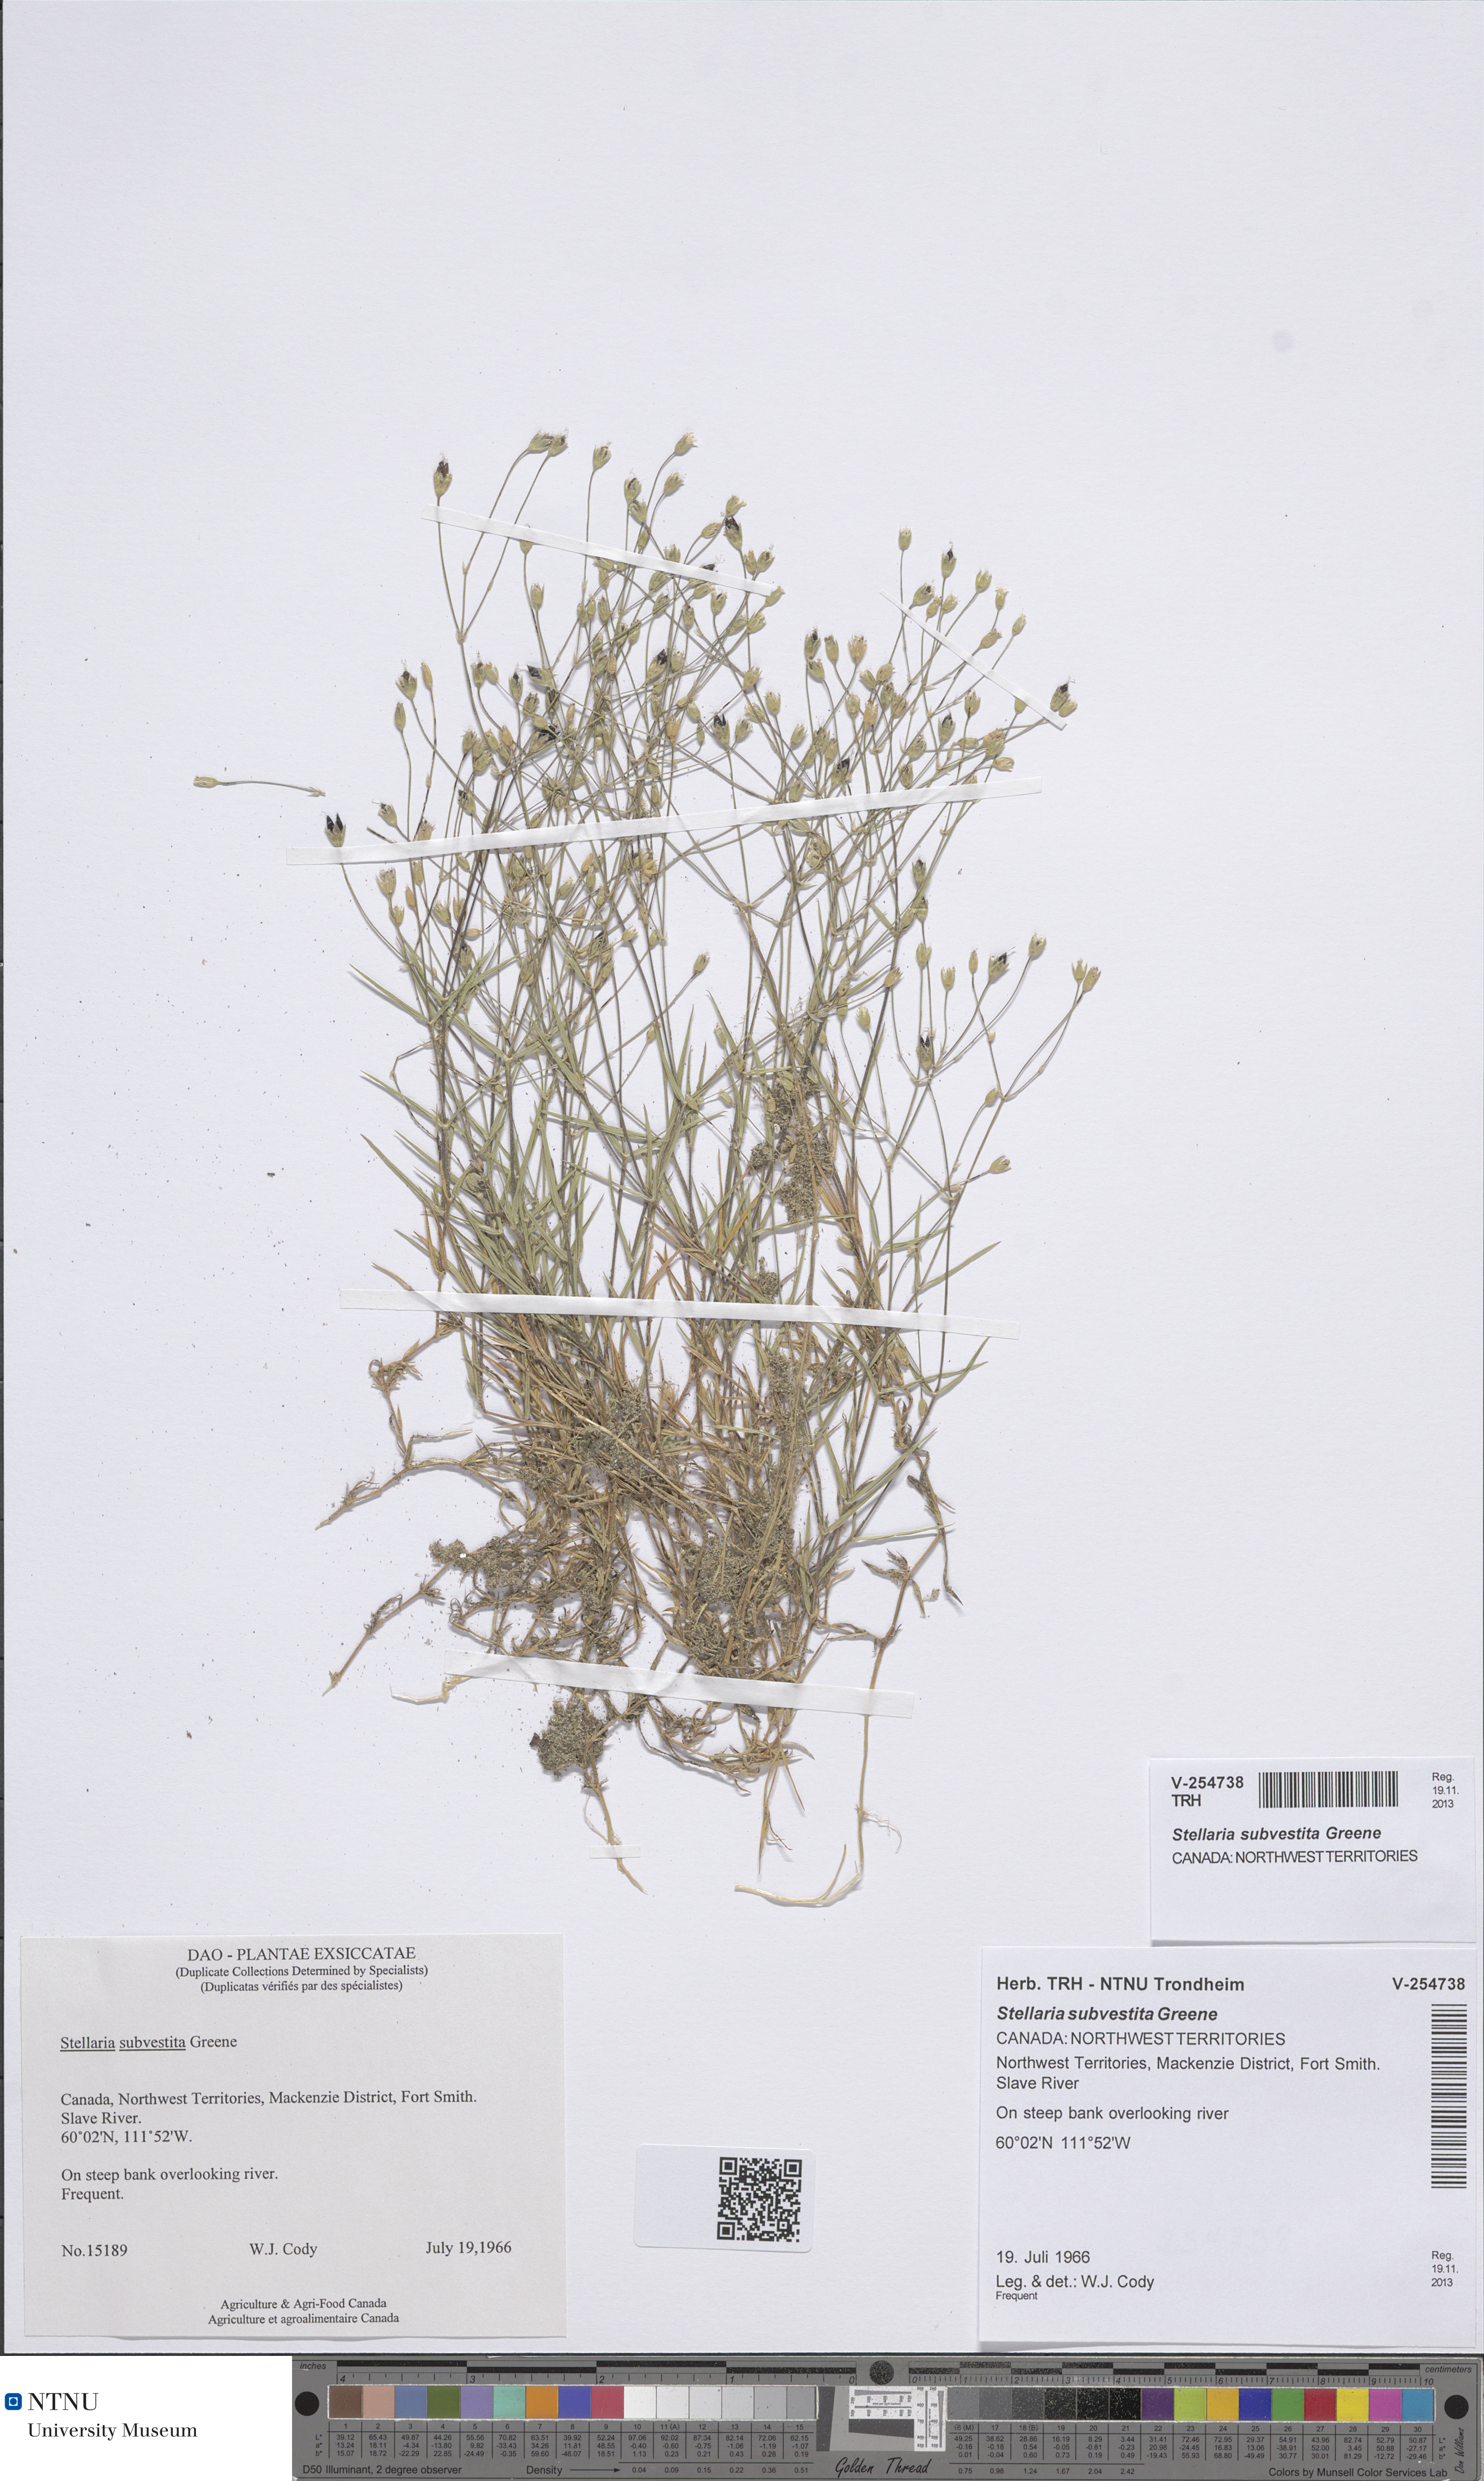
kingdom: Plantae
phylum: Tracheophyta
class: Magnoliopsida
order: Caryophyllales
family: Caryophyllaceae
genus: Stellaria
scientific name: Stellaria longipes
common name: Goldie's starwort
